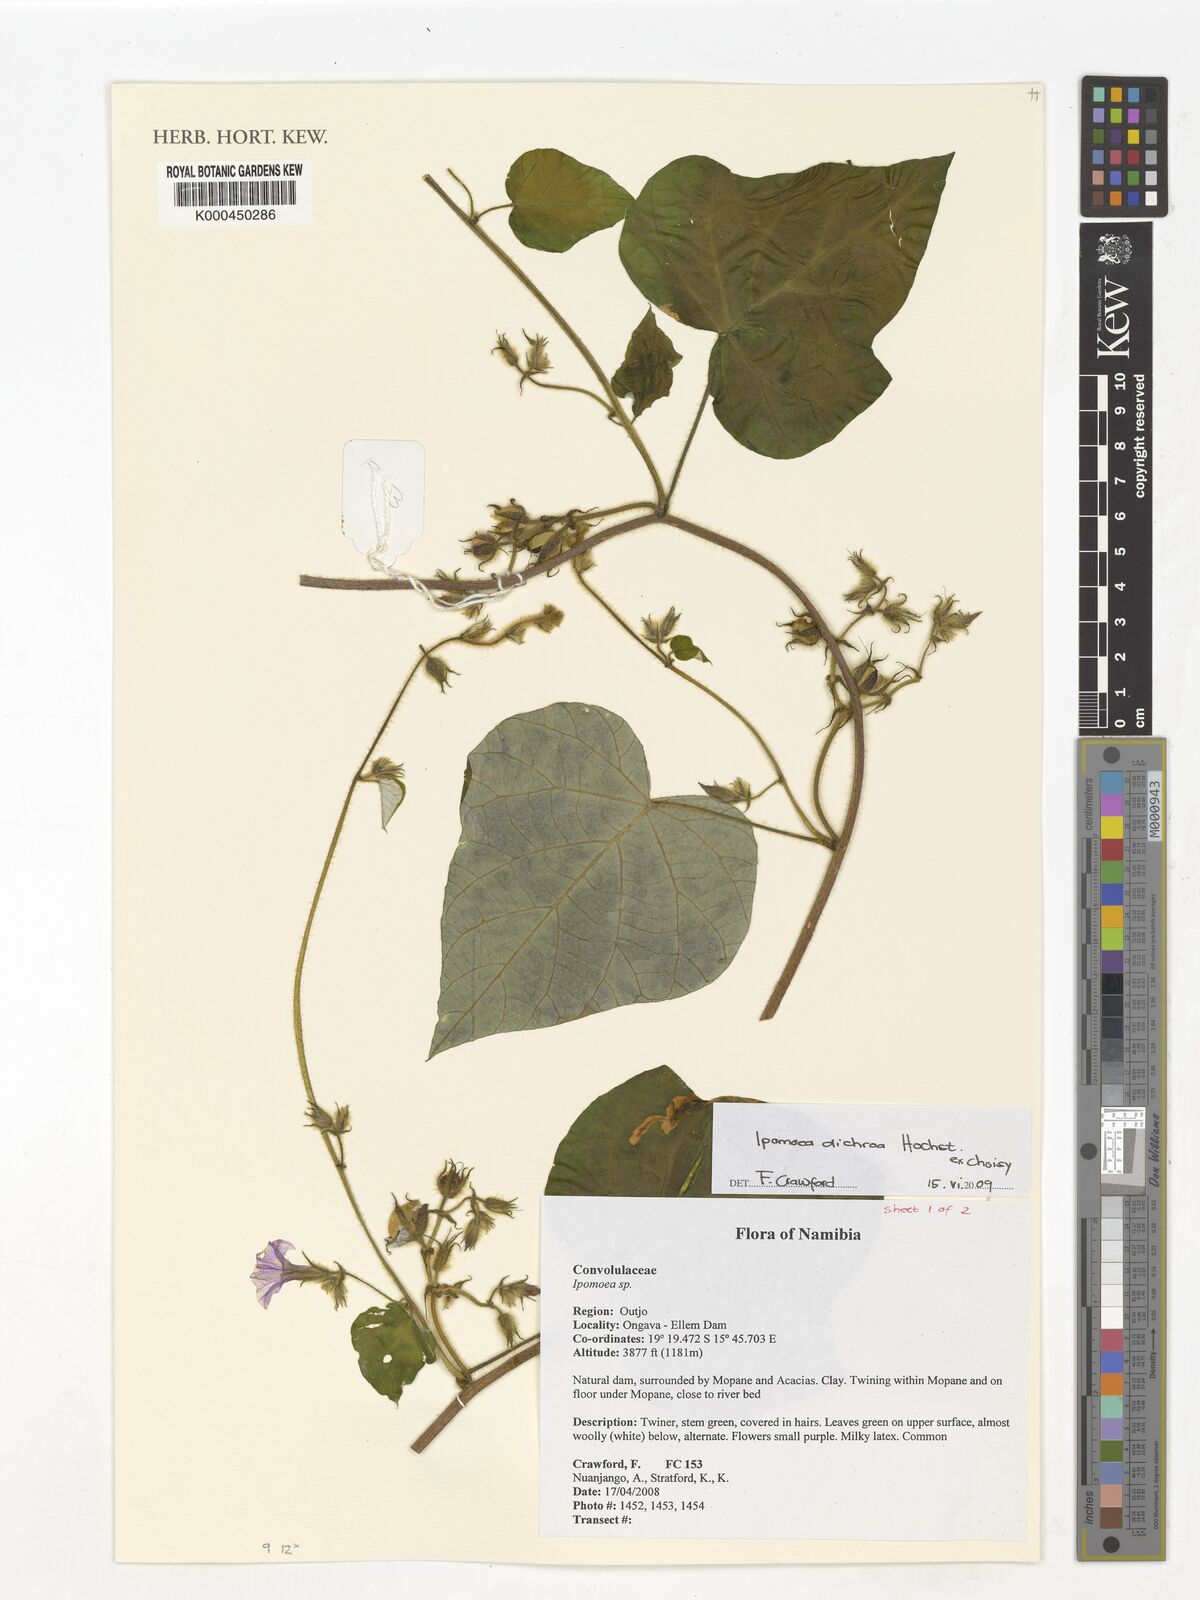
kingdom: Plantae
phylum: Tracheophyta
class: Magnoliopsida
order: Solanales
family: Convolvulaceae
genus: Ipomoea
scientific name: Ipomoea arachnosperma
